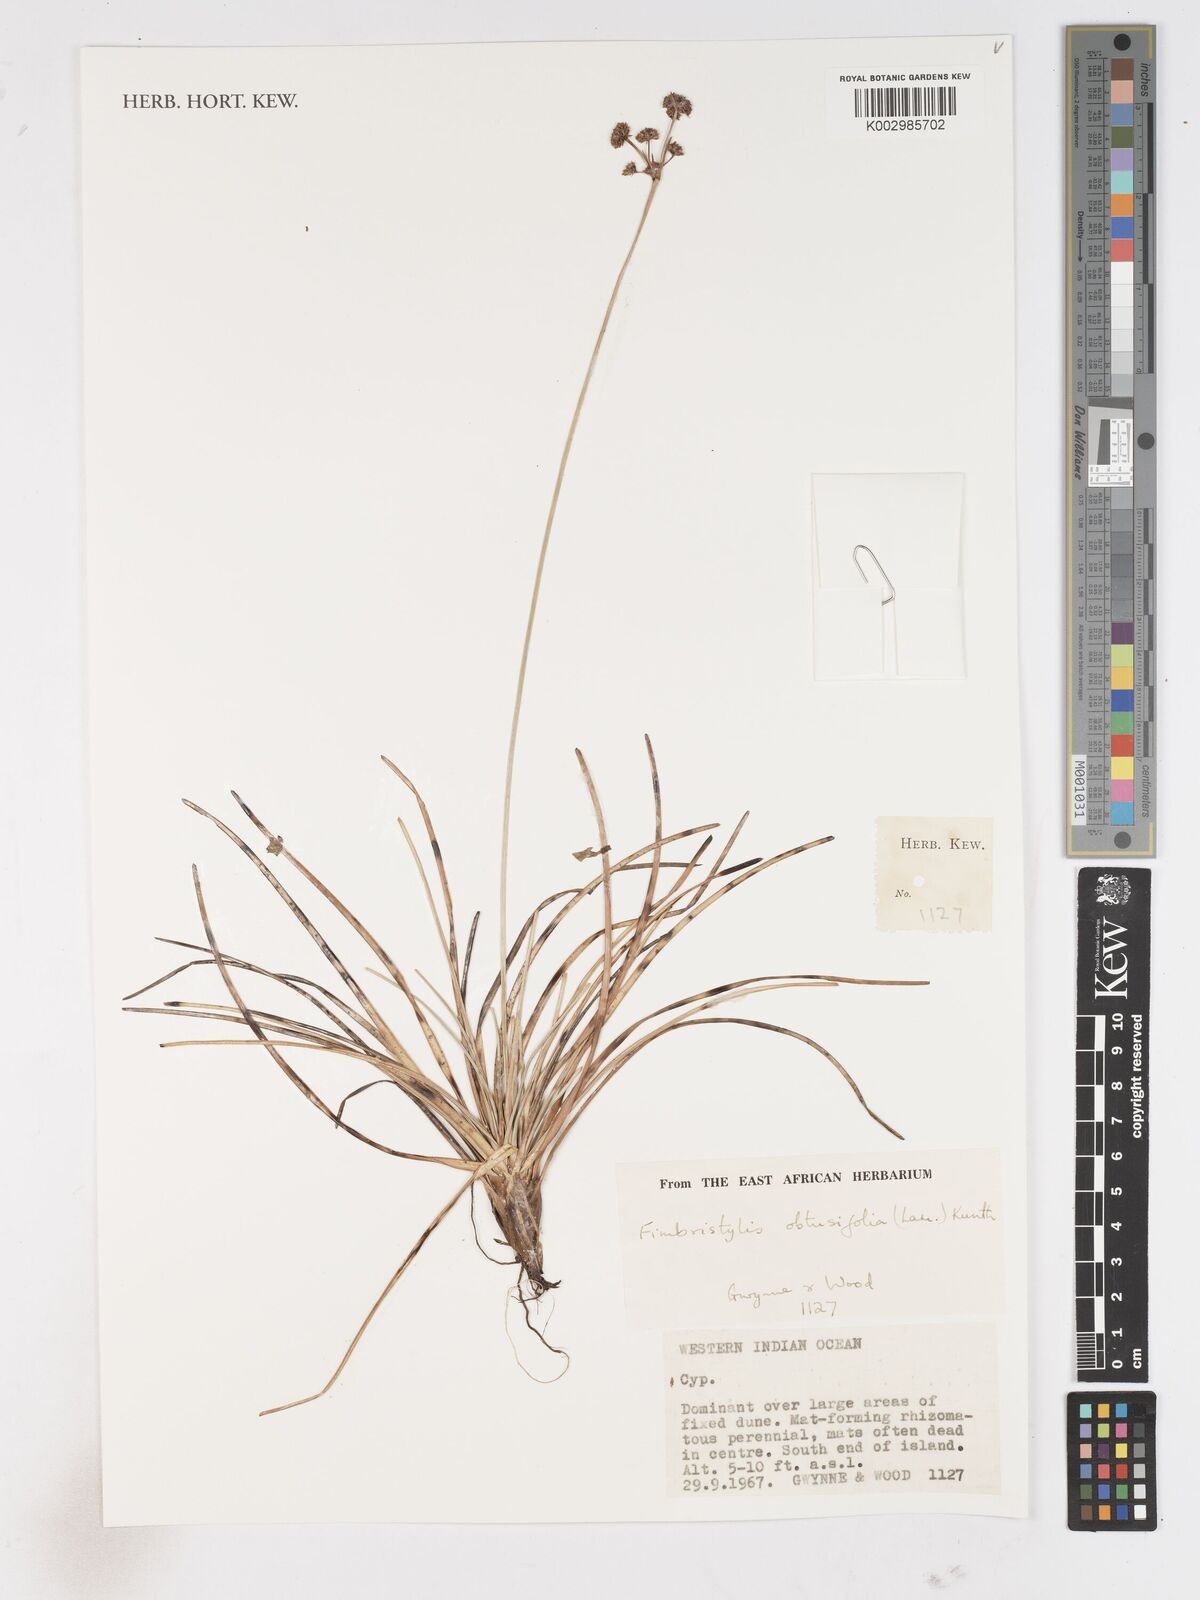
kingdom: Plantae
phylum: Tracheophyta
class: Liliopsida
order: Poales
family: Cyperaceae
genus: Fimbristylis
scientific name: Fimbristylis cymosa
